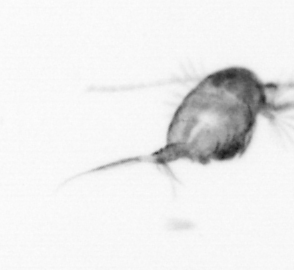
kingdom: Animalia
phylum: Arthropoda
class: Copepoda
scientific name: Copepoda
